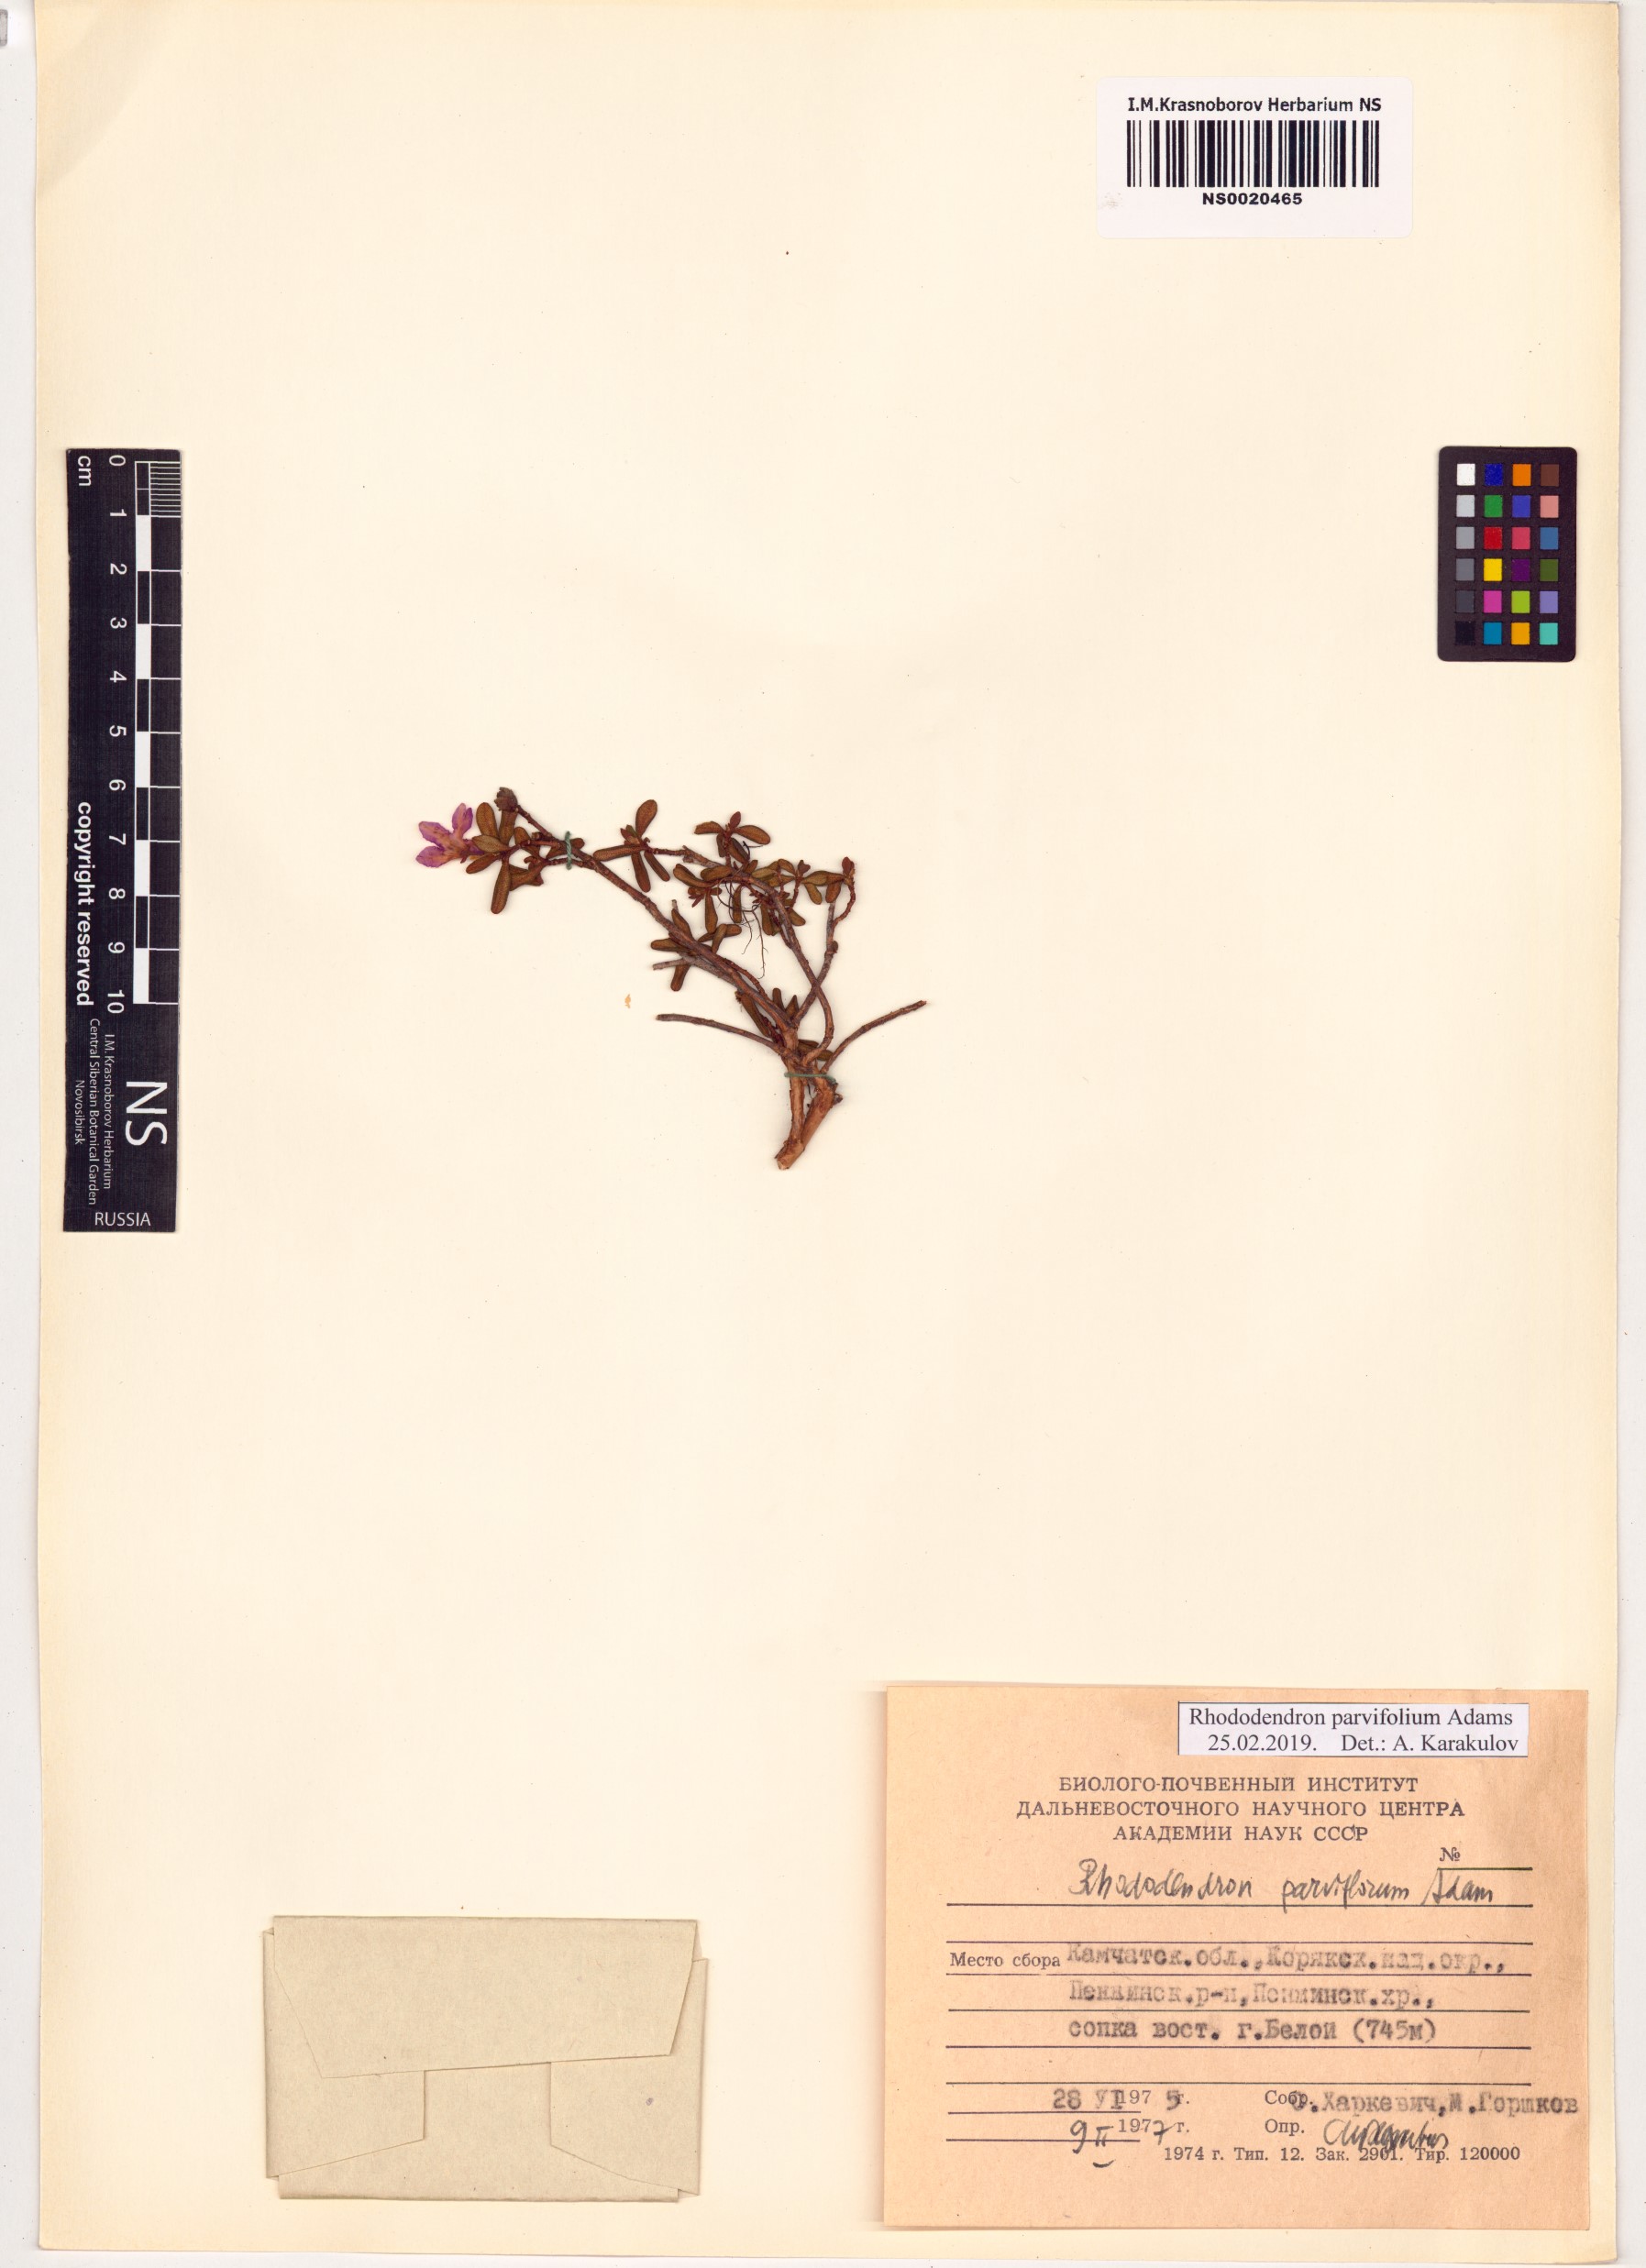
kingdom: Plantae
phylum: Tracheophyta
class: Magnoliopsida
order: Ericales
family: Ericaceae
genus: Rhododendron
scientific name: Rhododendron parvifolium
